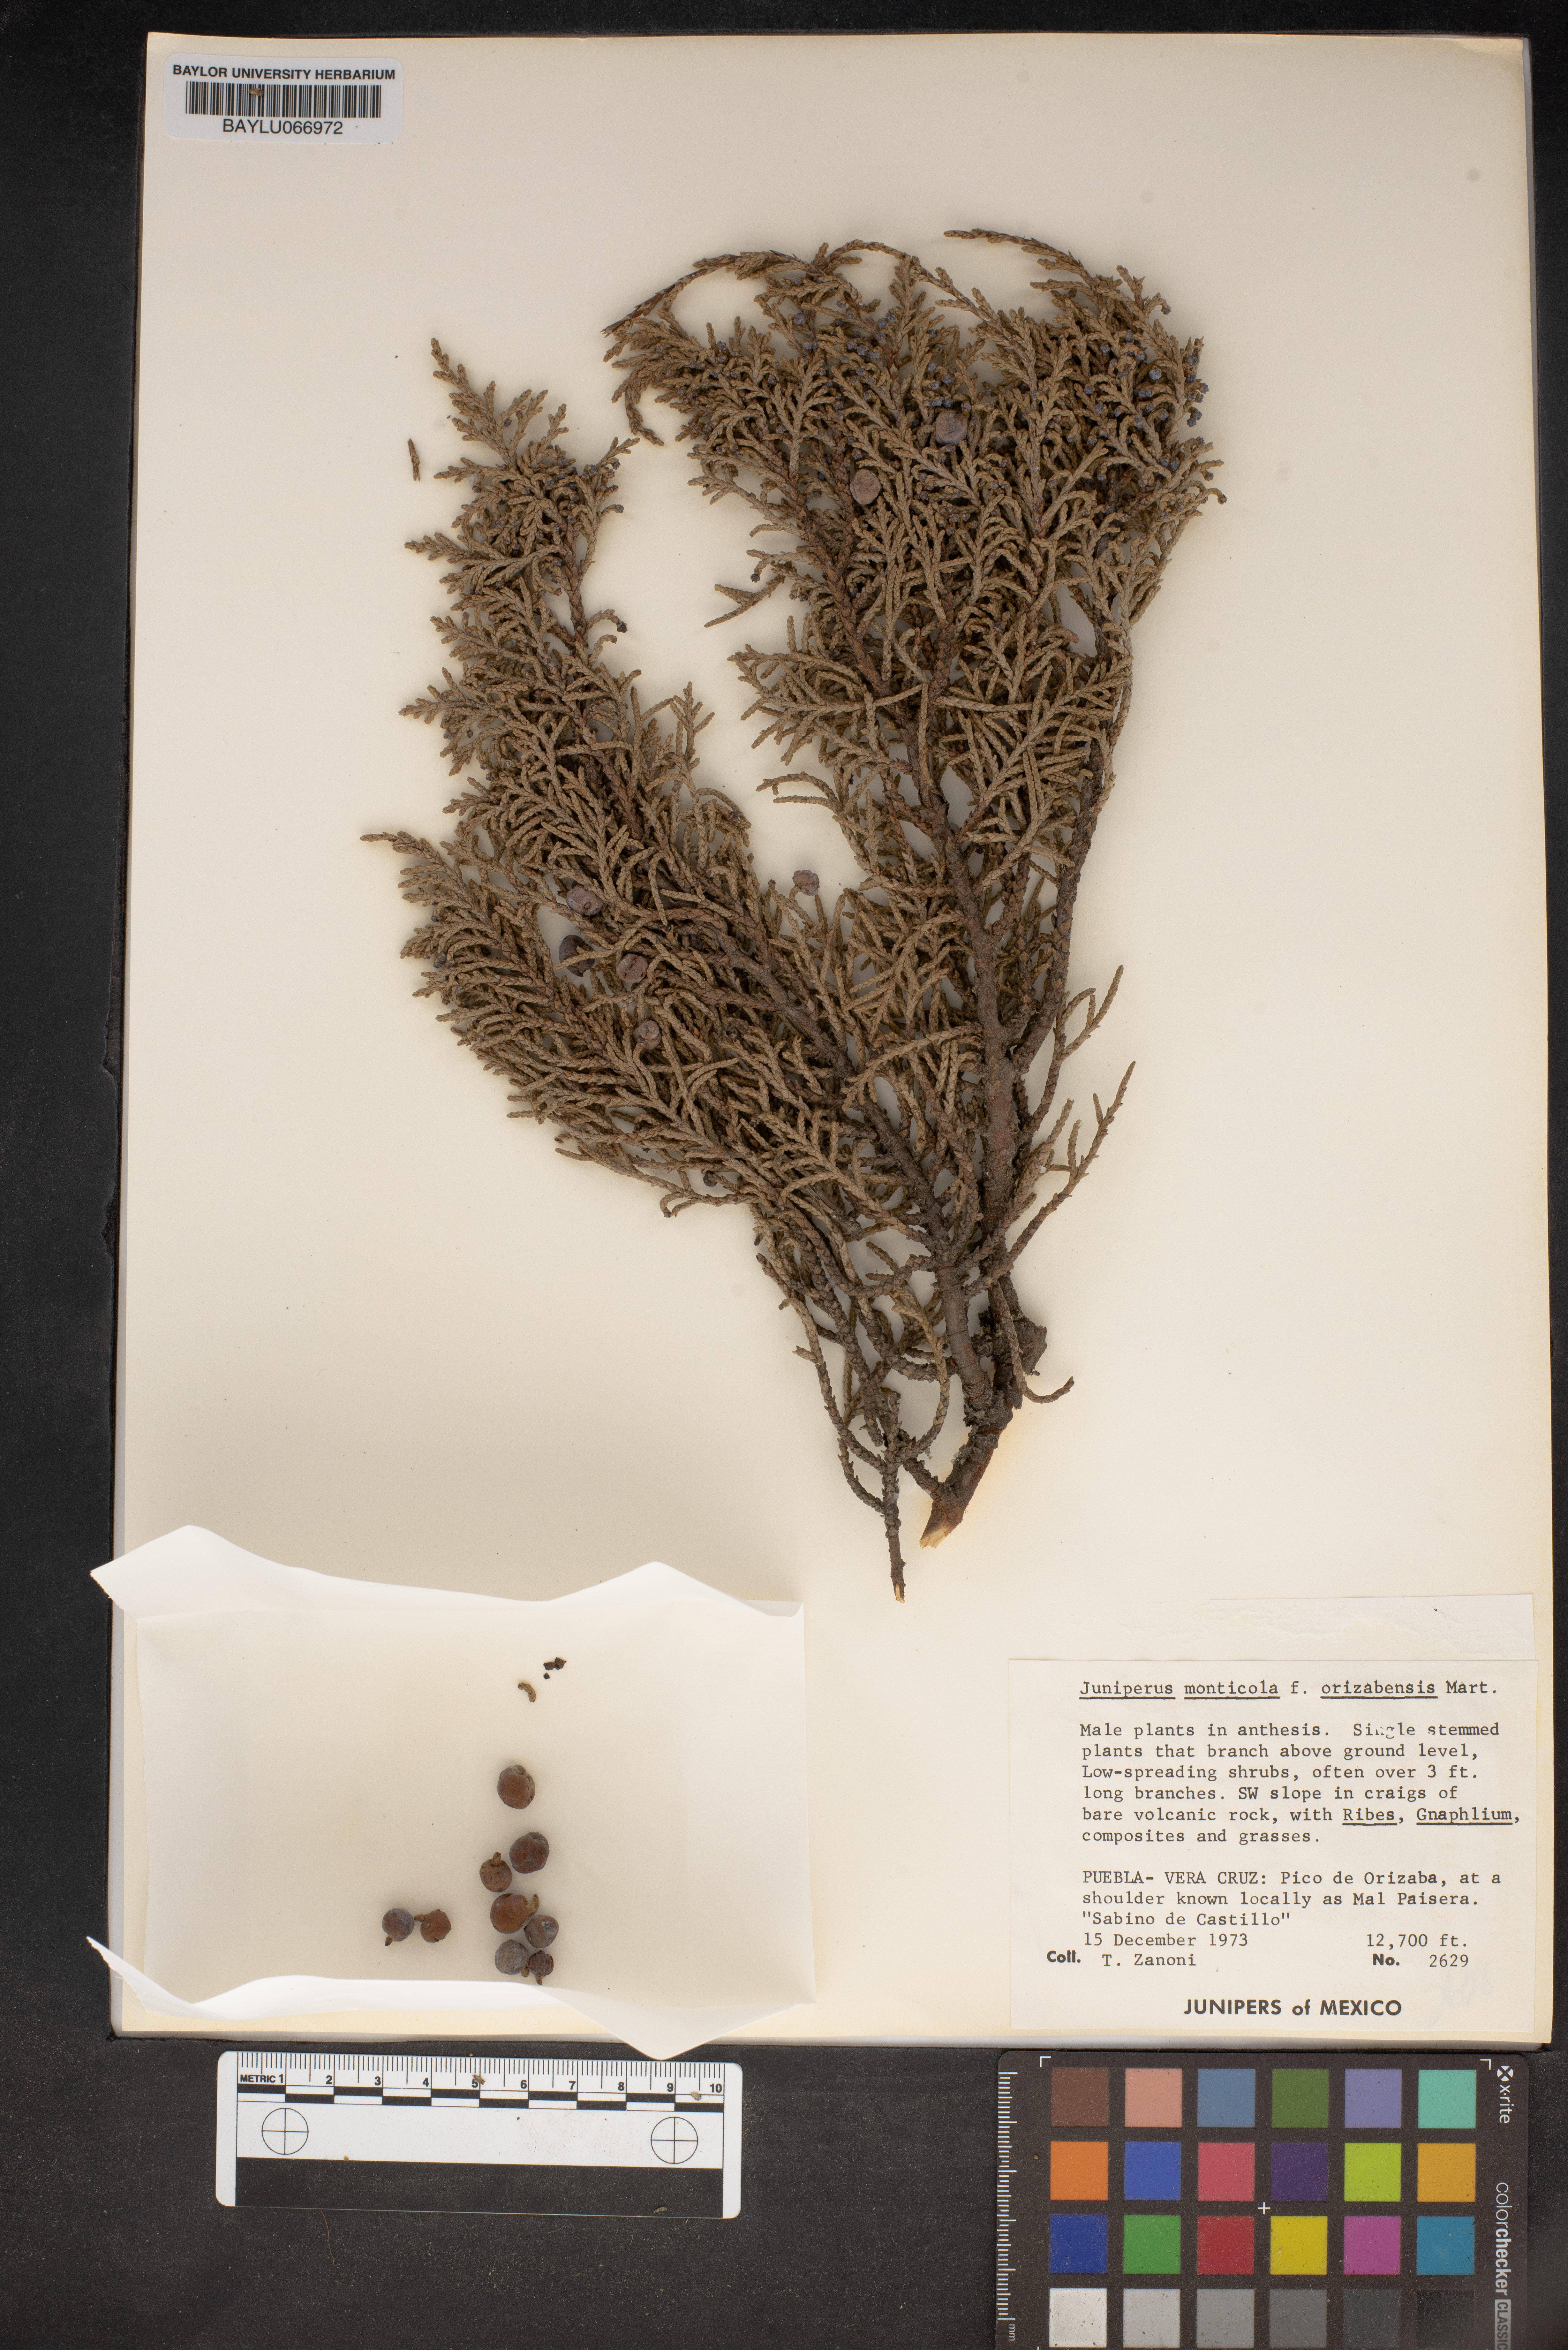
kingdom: Plantae
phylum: Tracheophyta
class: Pinopsida
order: Pinales
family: Cupressaceae
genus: Juniperus
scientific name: Juniperus monticola
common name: Mexican juniper
